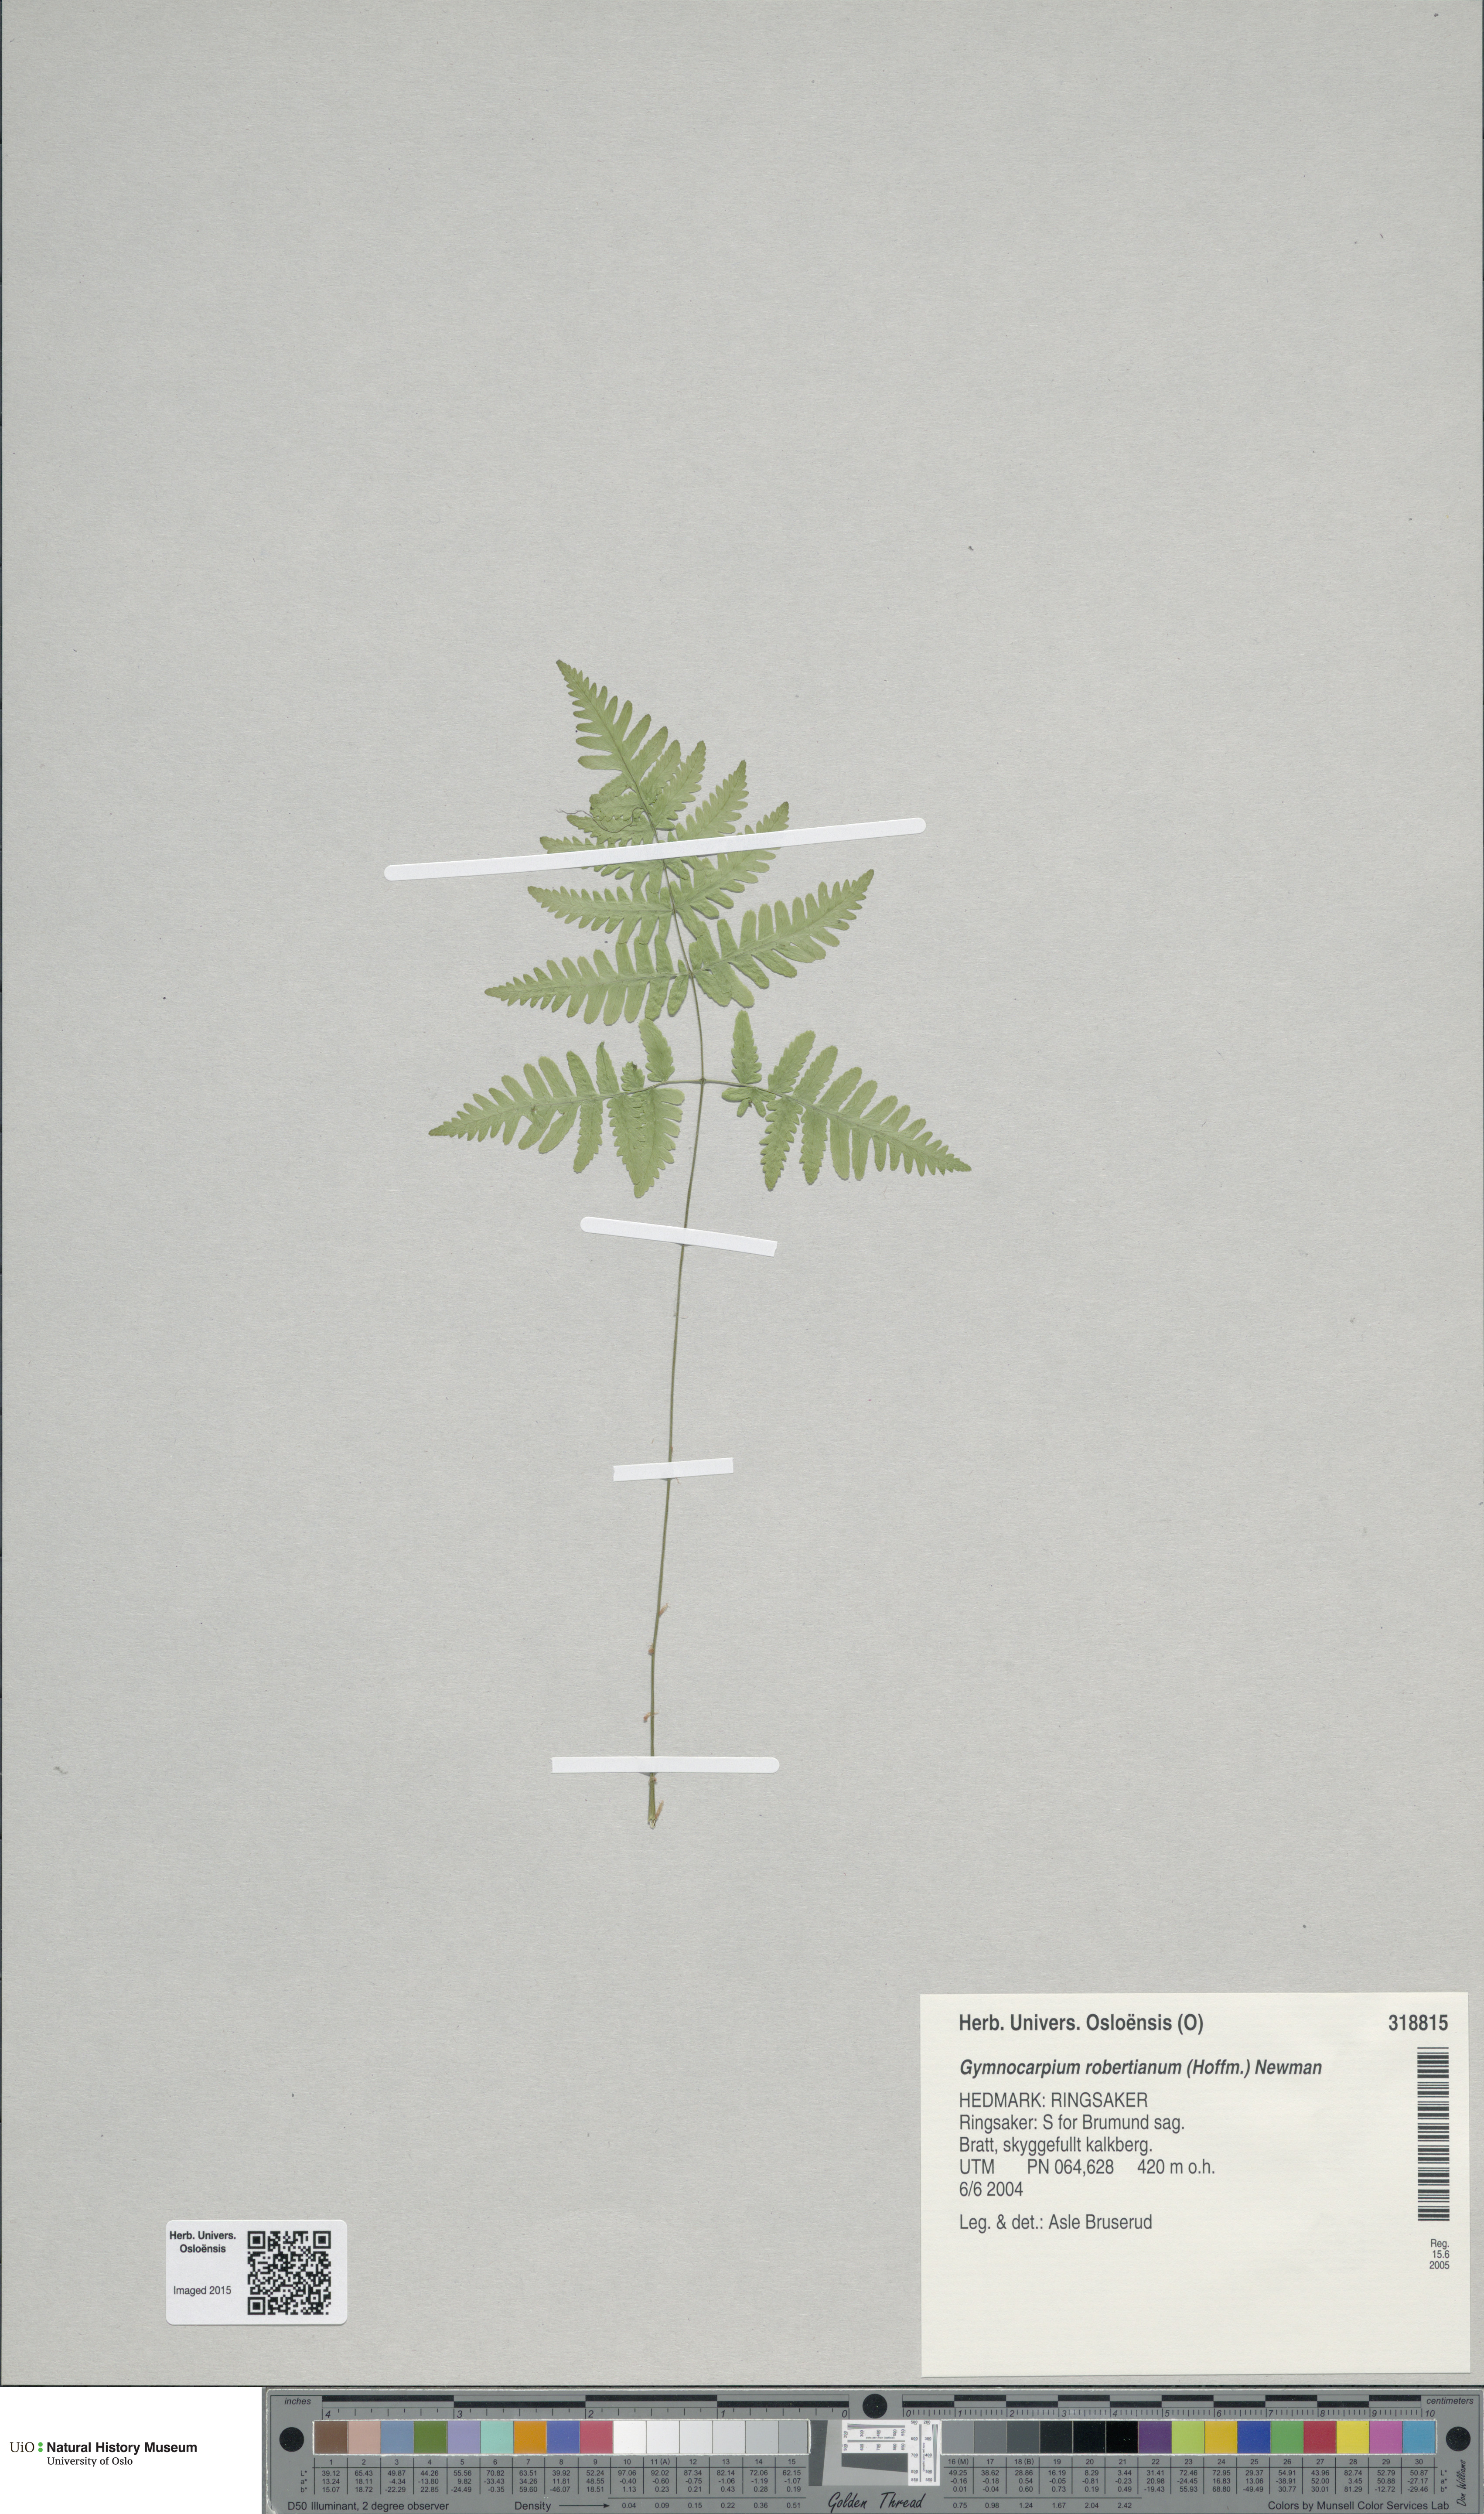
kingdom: Plantae
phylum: Tracheophyta
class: Polypodiopsida
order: Polypodiales
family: Cystopteridaceae
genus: Gymnocarpium
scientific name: Gymnocarpium robertianum
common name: Limestone fern
